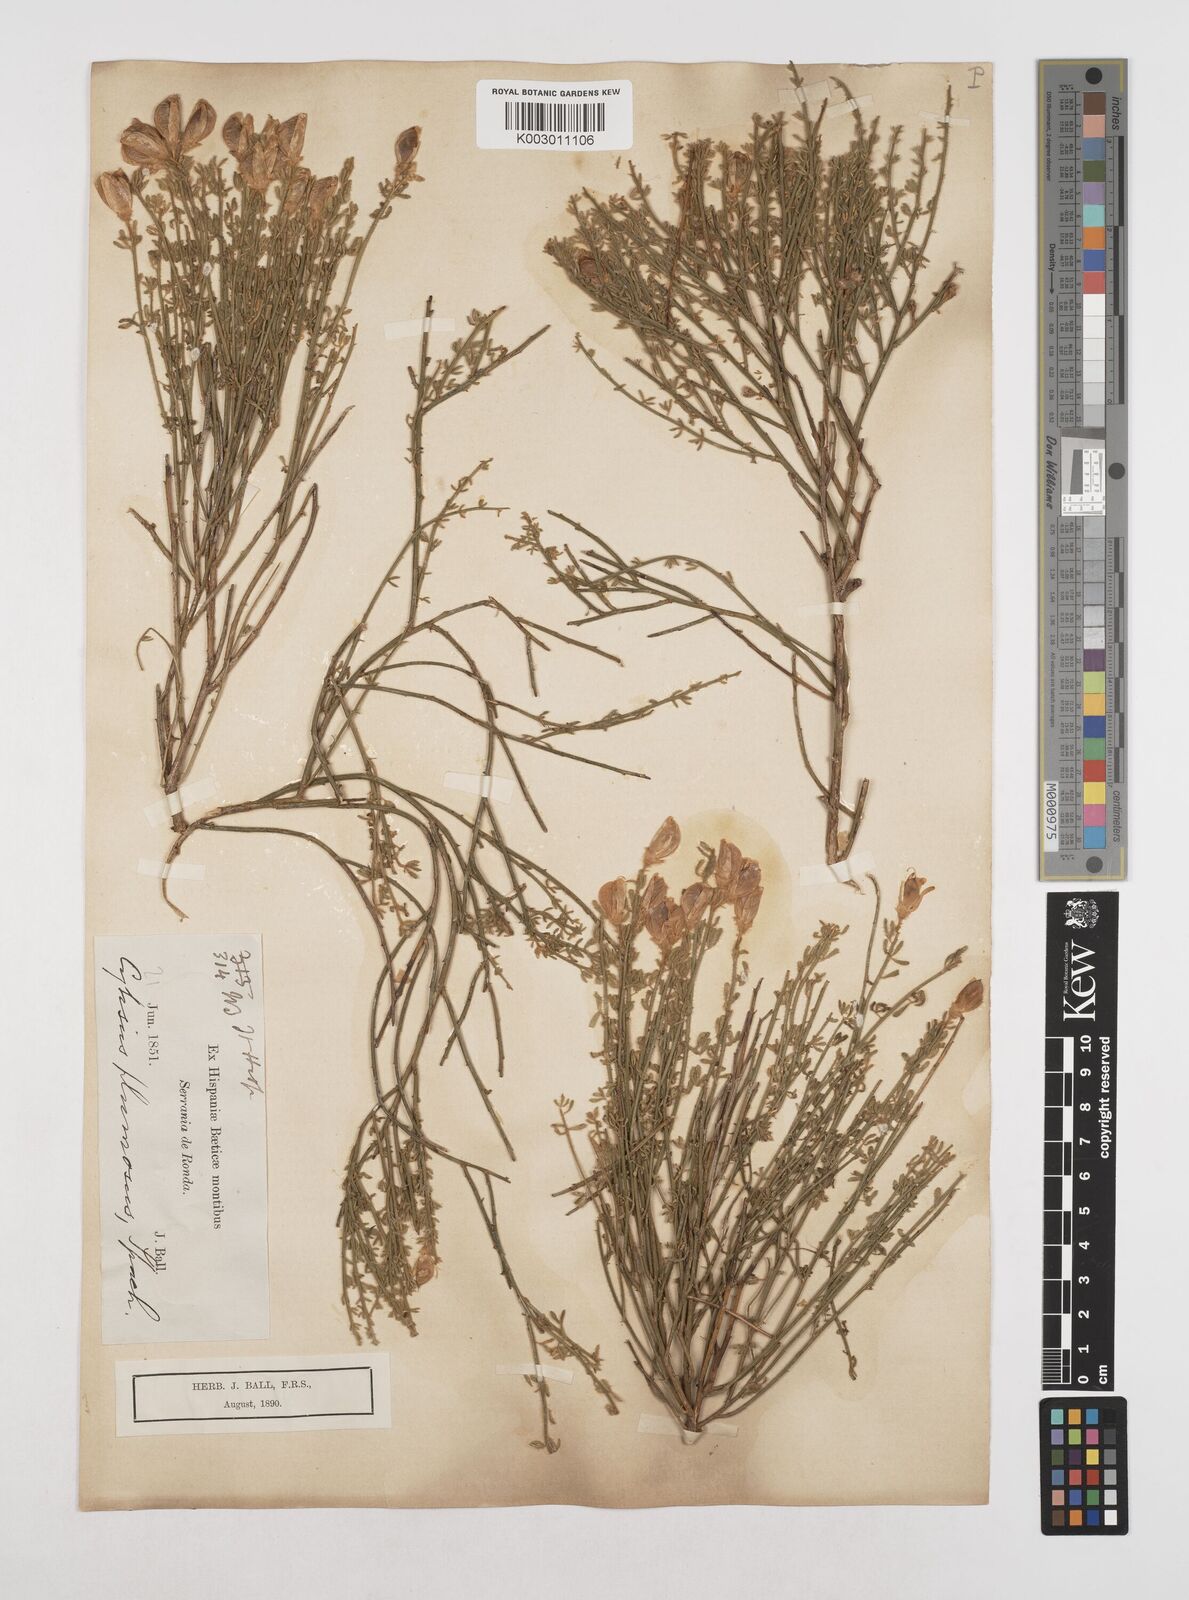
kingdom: Plantae
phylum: Tracheophyta
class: Magnoliopsida
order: Fabales
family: Fabaceae
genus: Cytisus
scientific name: Cytisus fontanesii
